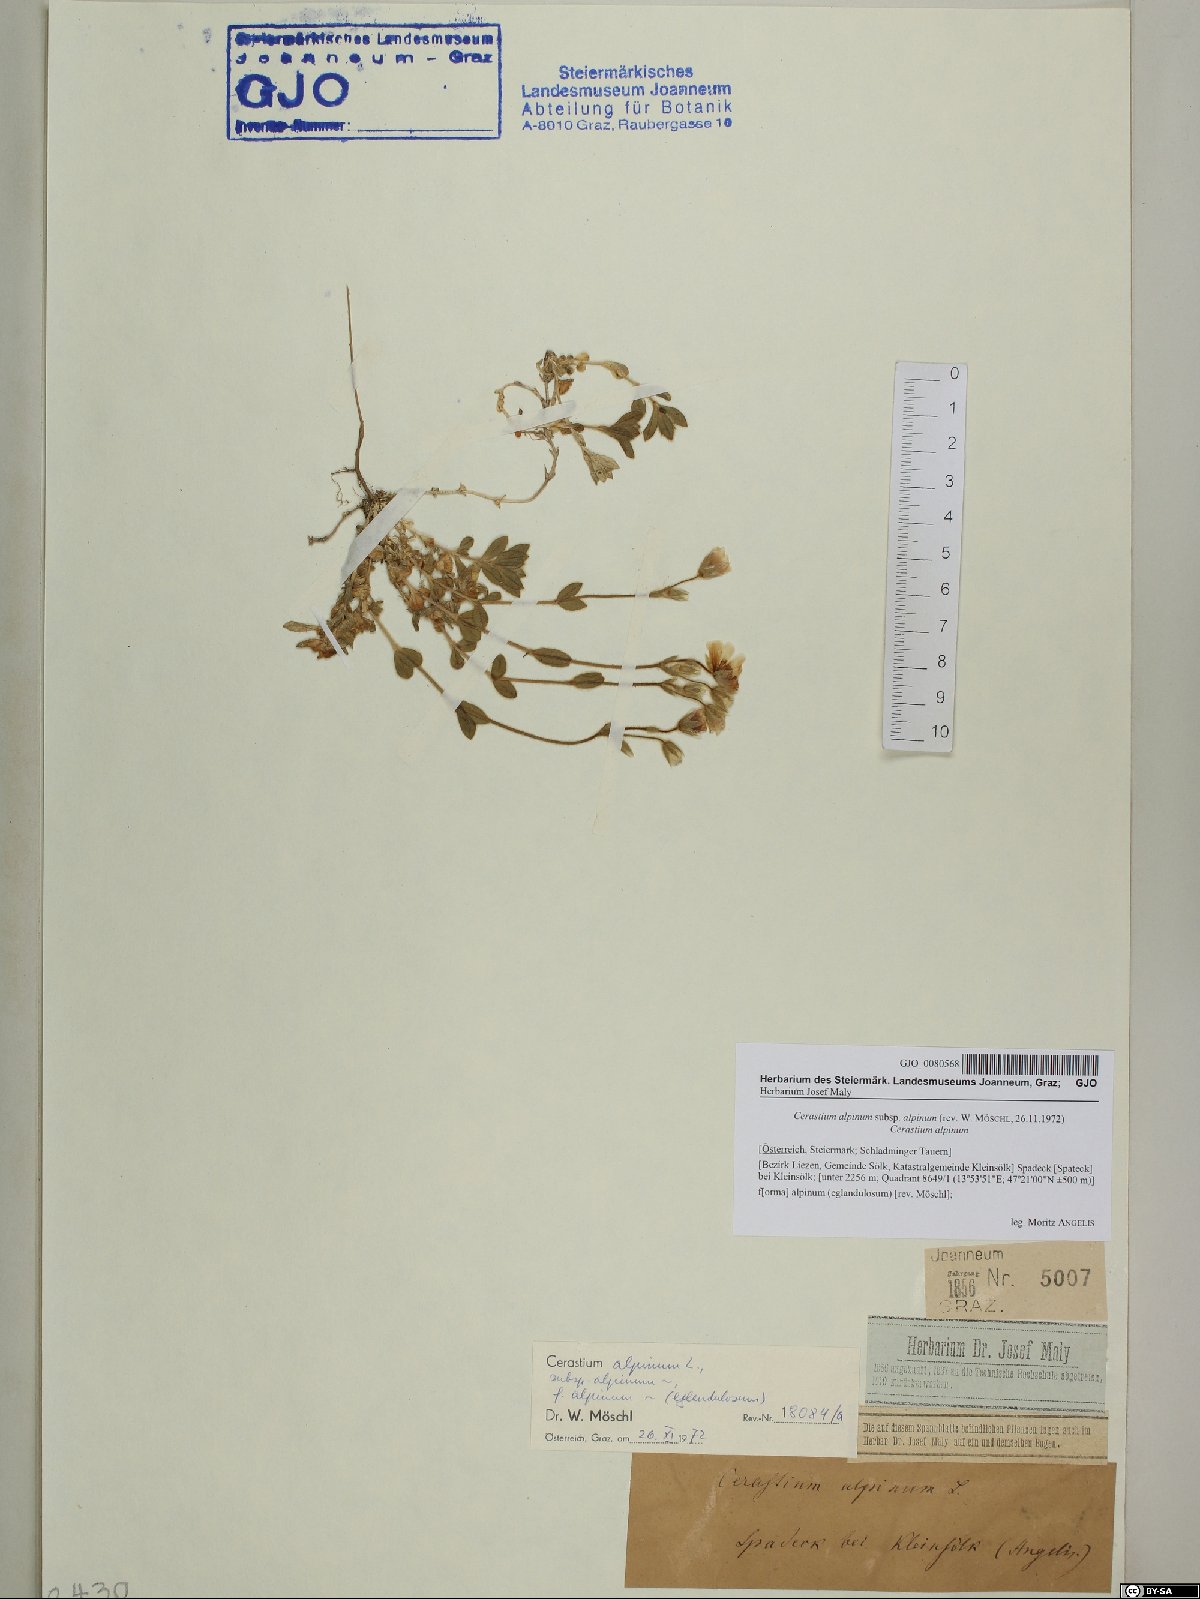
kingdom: Plantae
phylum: Tracheophyta
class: Magnoliopsida
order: Caryophyllales
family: Caryophyllaceae
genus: Cerastium
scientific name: Cerastium alpinum
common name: Alpine mouse-ear
